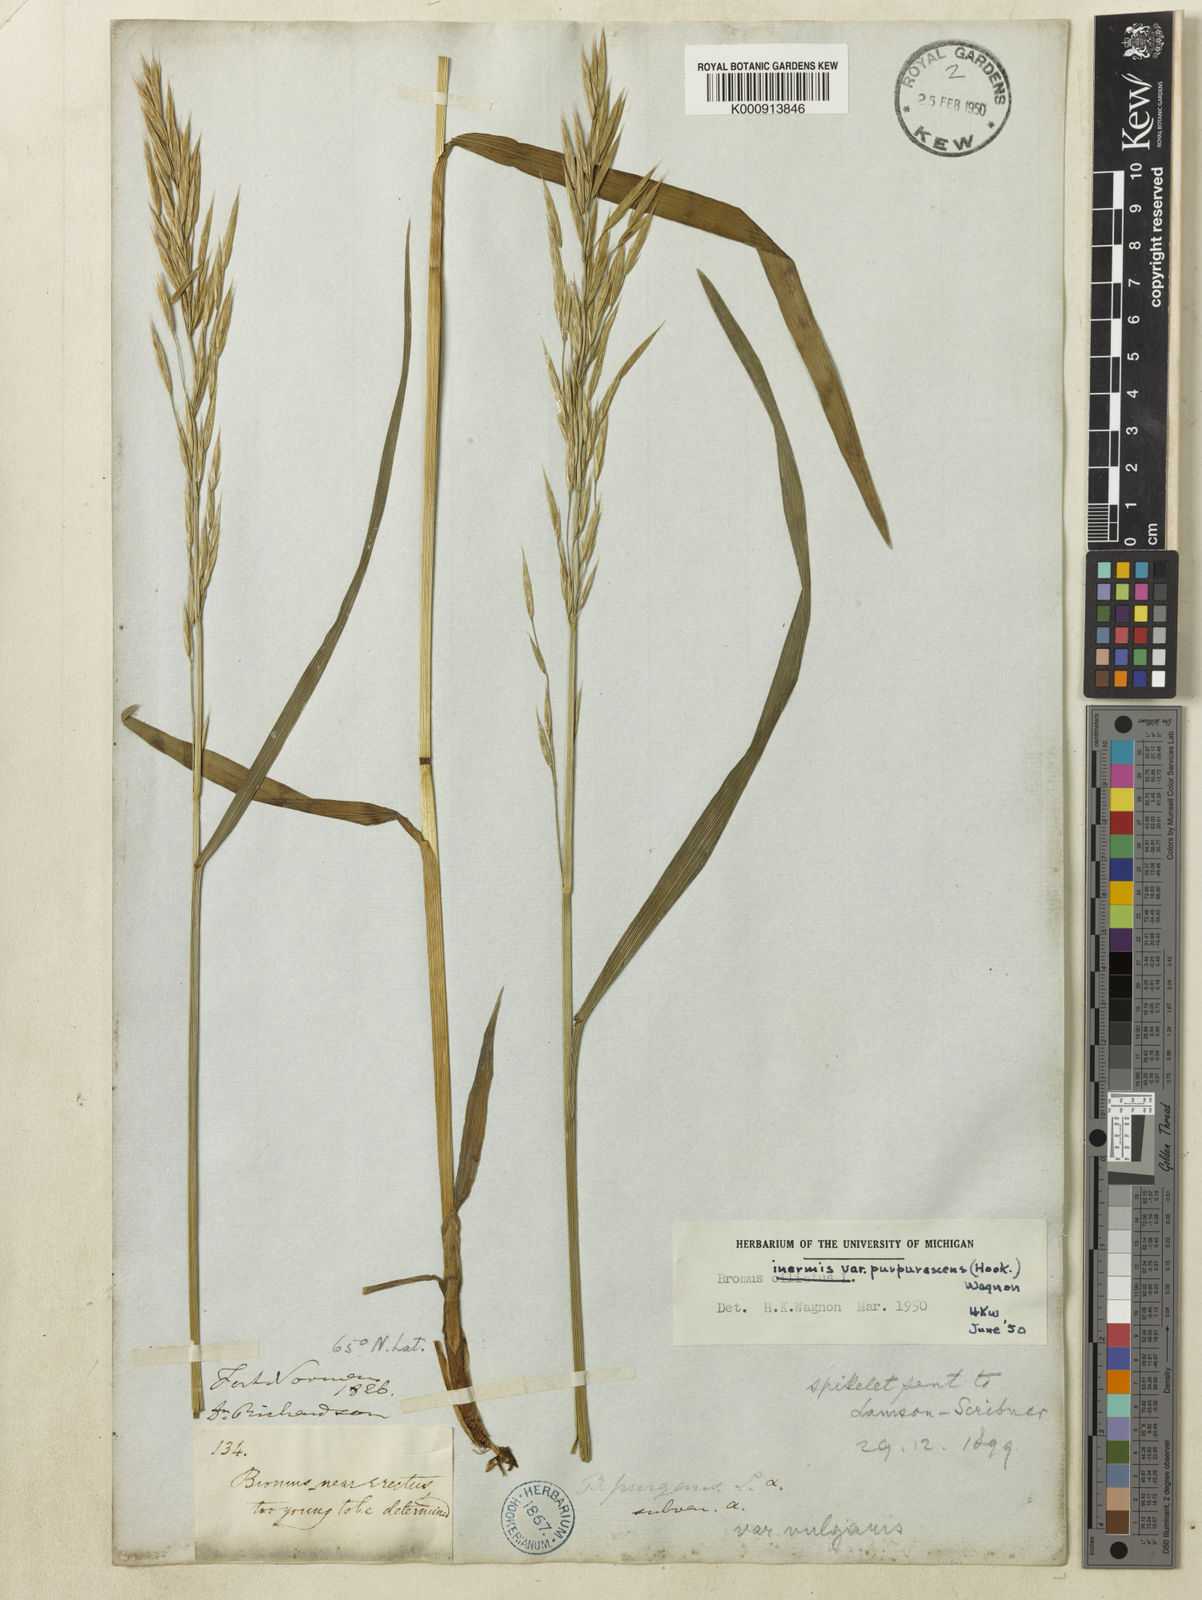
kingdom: Plantae
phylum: Tracheophyta
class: Liliopsida
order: Poales
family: Poaceae
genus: Bromus
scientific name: Bromus vulgaris
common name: Columbia brome
